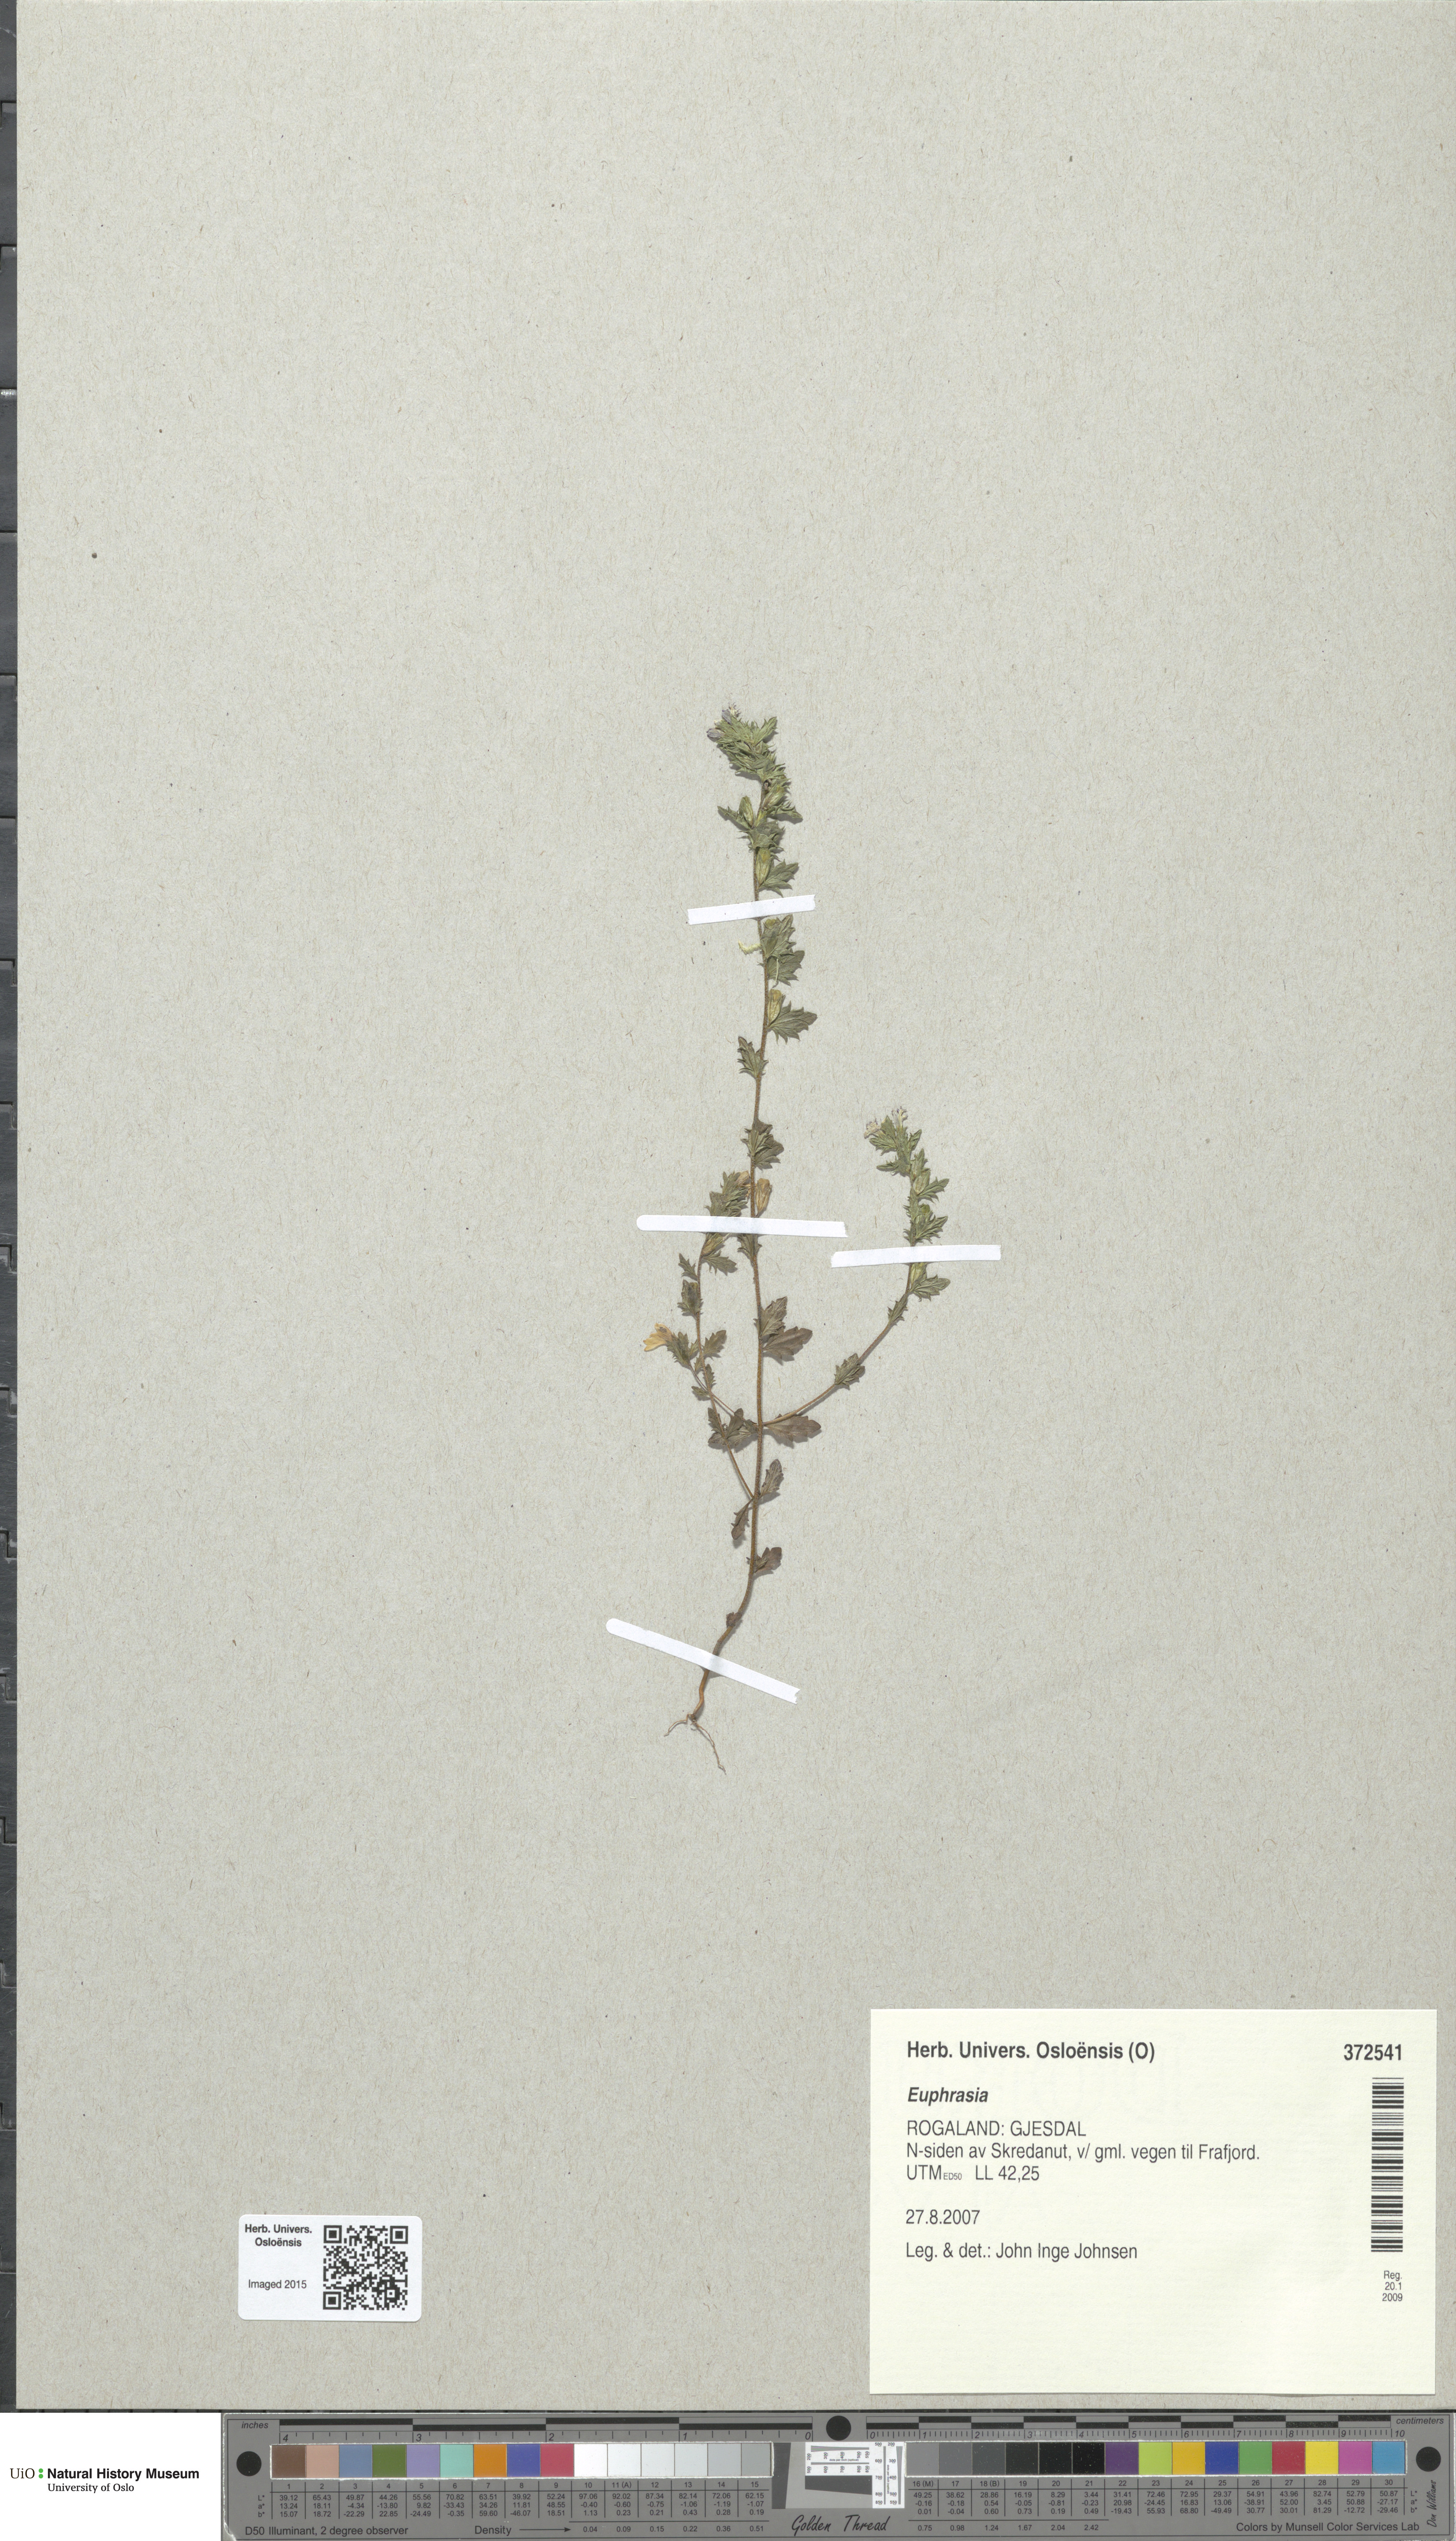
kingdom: Plantae
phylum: Tracheophyta
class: Magnoliopsida
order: Lamiales
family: Orobanchaceae
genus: Euphrasia
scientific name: Euphrasia
